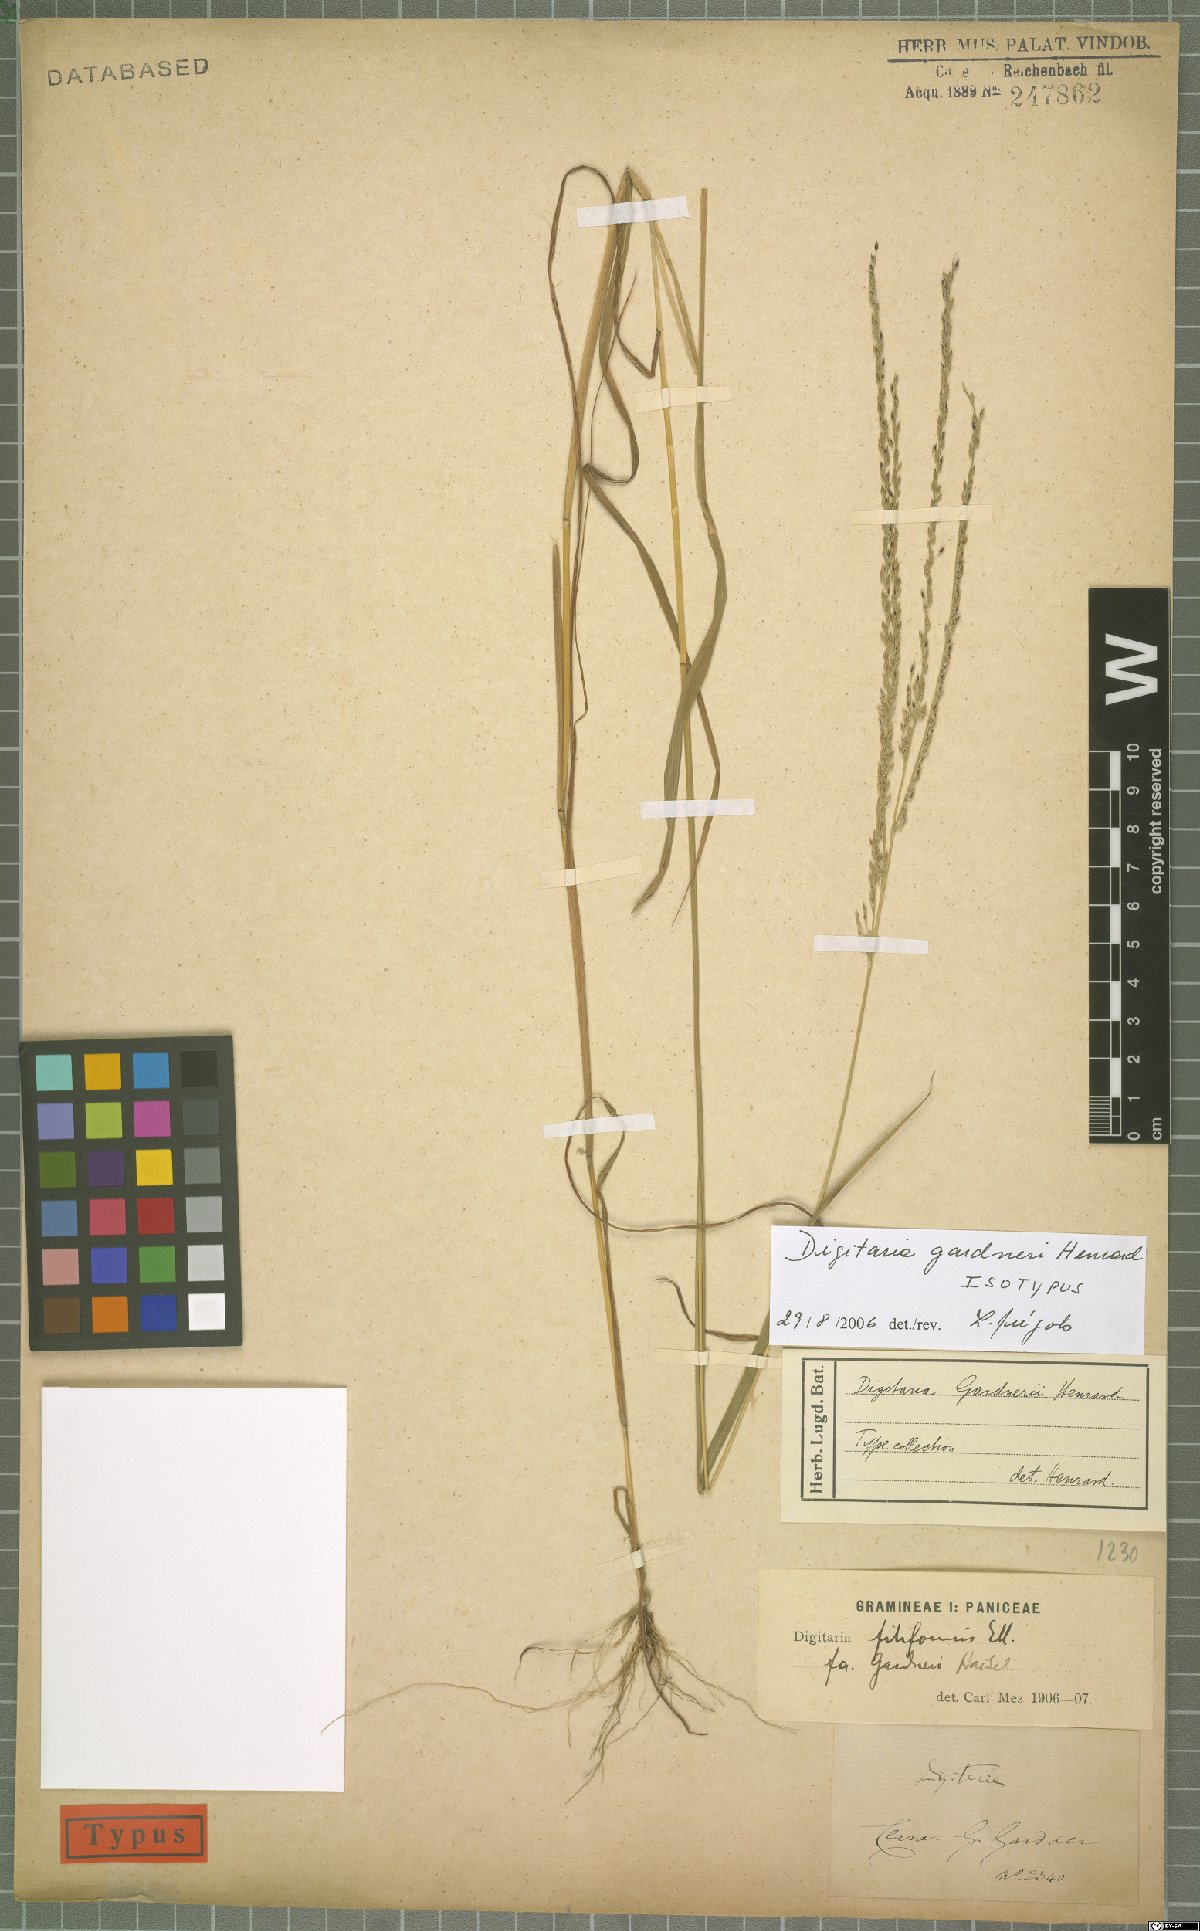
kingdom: Plantae
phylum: Tracheophyta
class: Liliopsida
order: Poales
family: Poaceae
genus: Digitaria
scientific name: Digitaria gardneri
